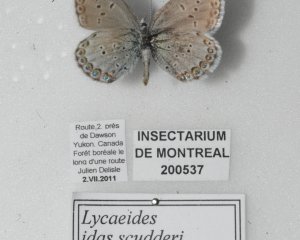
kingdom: Animalia
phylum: Arthropoda
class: Insecta
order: Lepidoptera
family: Lycaenidae
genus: Lycaeides
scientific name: Lycaeides idas
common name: Northern Blue
